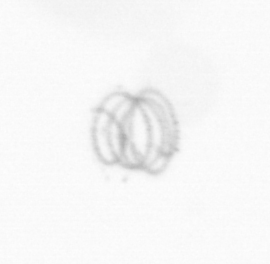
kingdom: Chromista
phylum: Ochrophyta
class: Bacillariophyceae
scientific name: Bacillariophyceae
